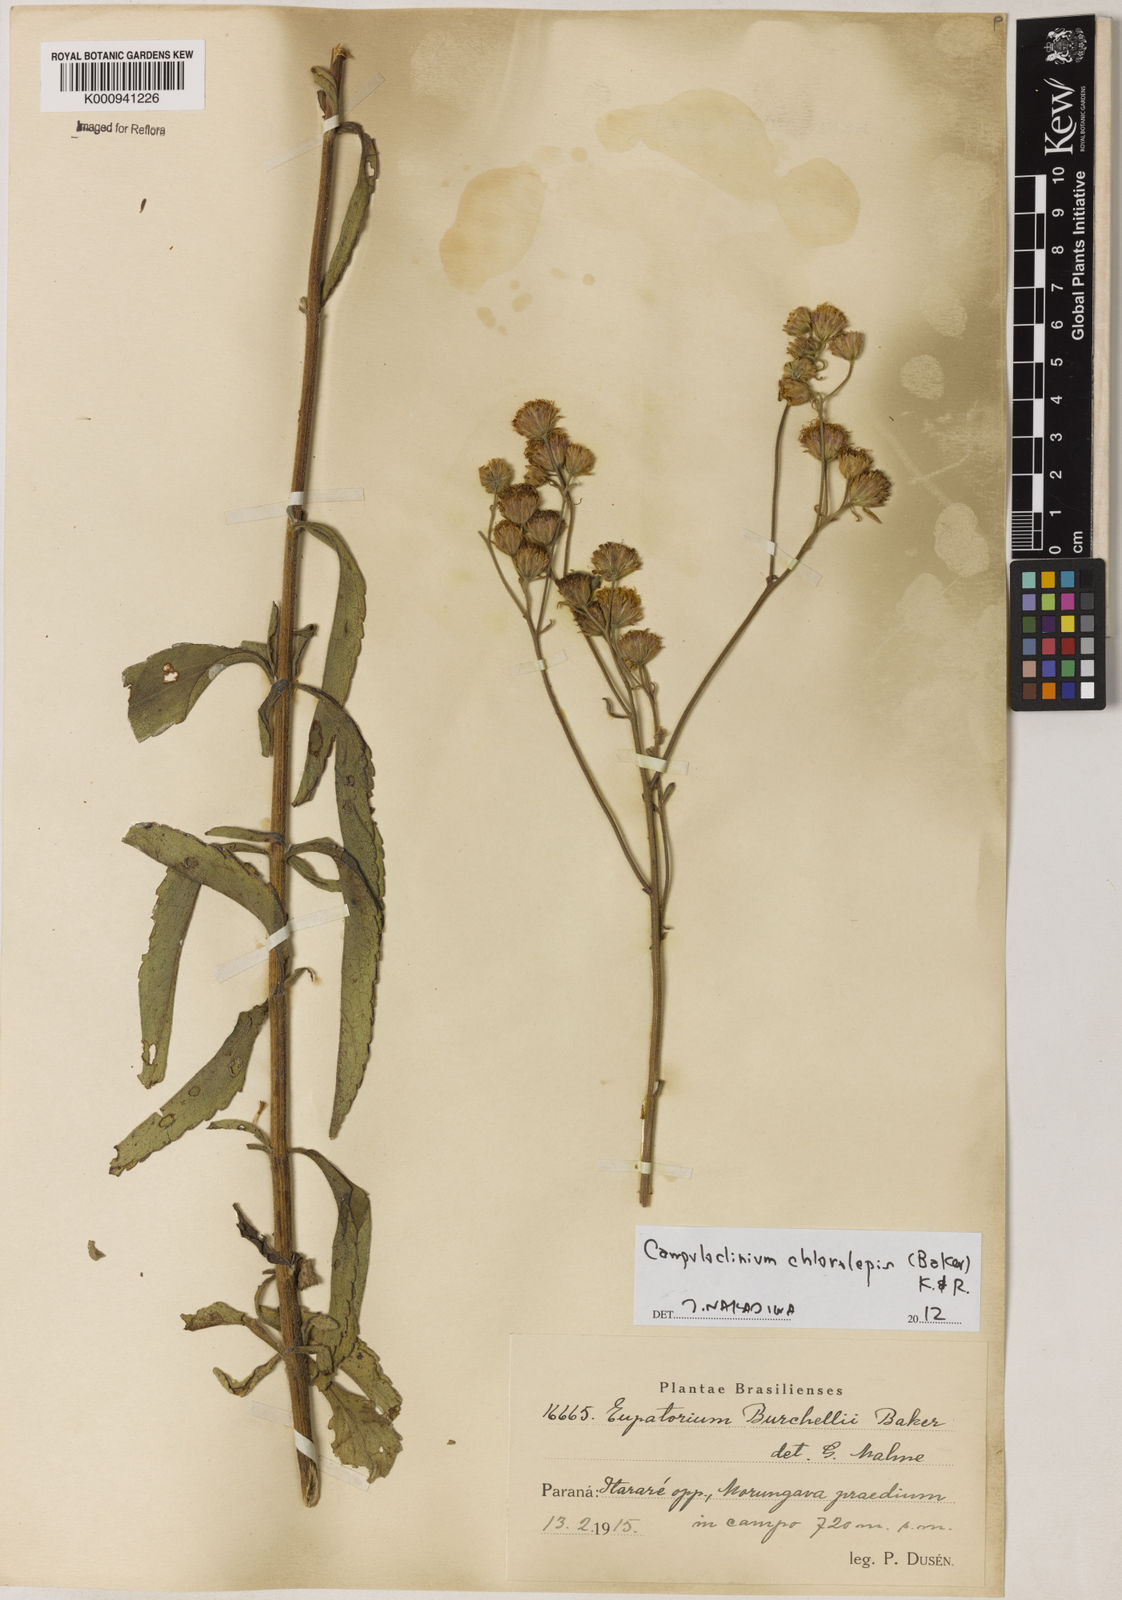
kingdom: Plantae
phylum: Tracheophyta
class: Magnoliopsida
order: Asterales
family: Asteraceae
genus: Campuloclinium
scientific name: Campuloclinium chlorolepis
